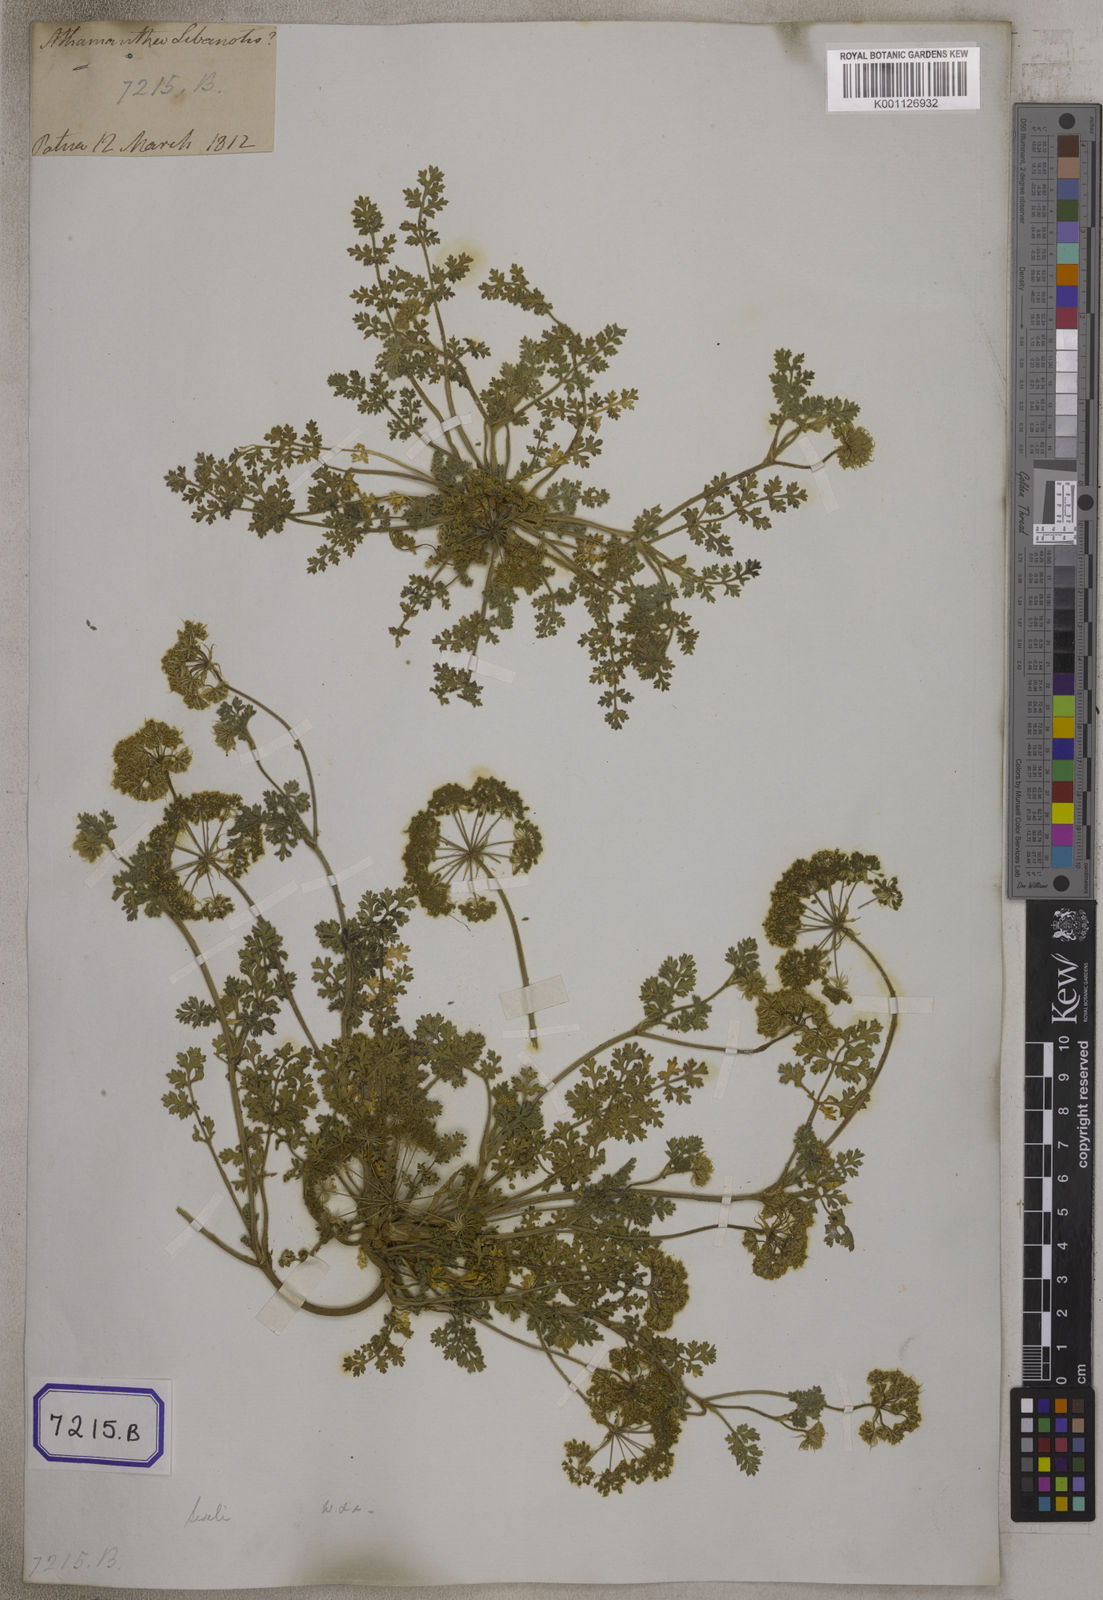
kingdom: Plantae
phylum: Tracheophyta
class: Magnoliopsida
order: Lamiales
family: Oleaceae
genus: Ligustrum
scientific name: Ligustrum sinense
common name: Chinese privet
